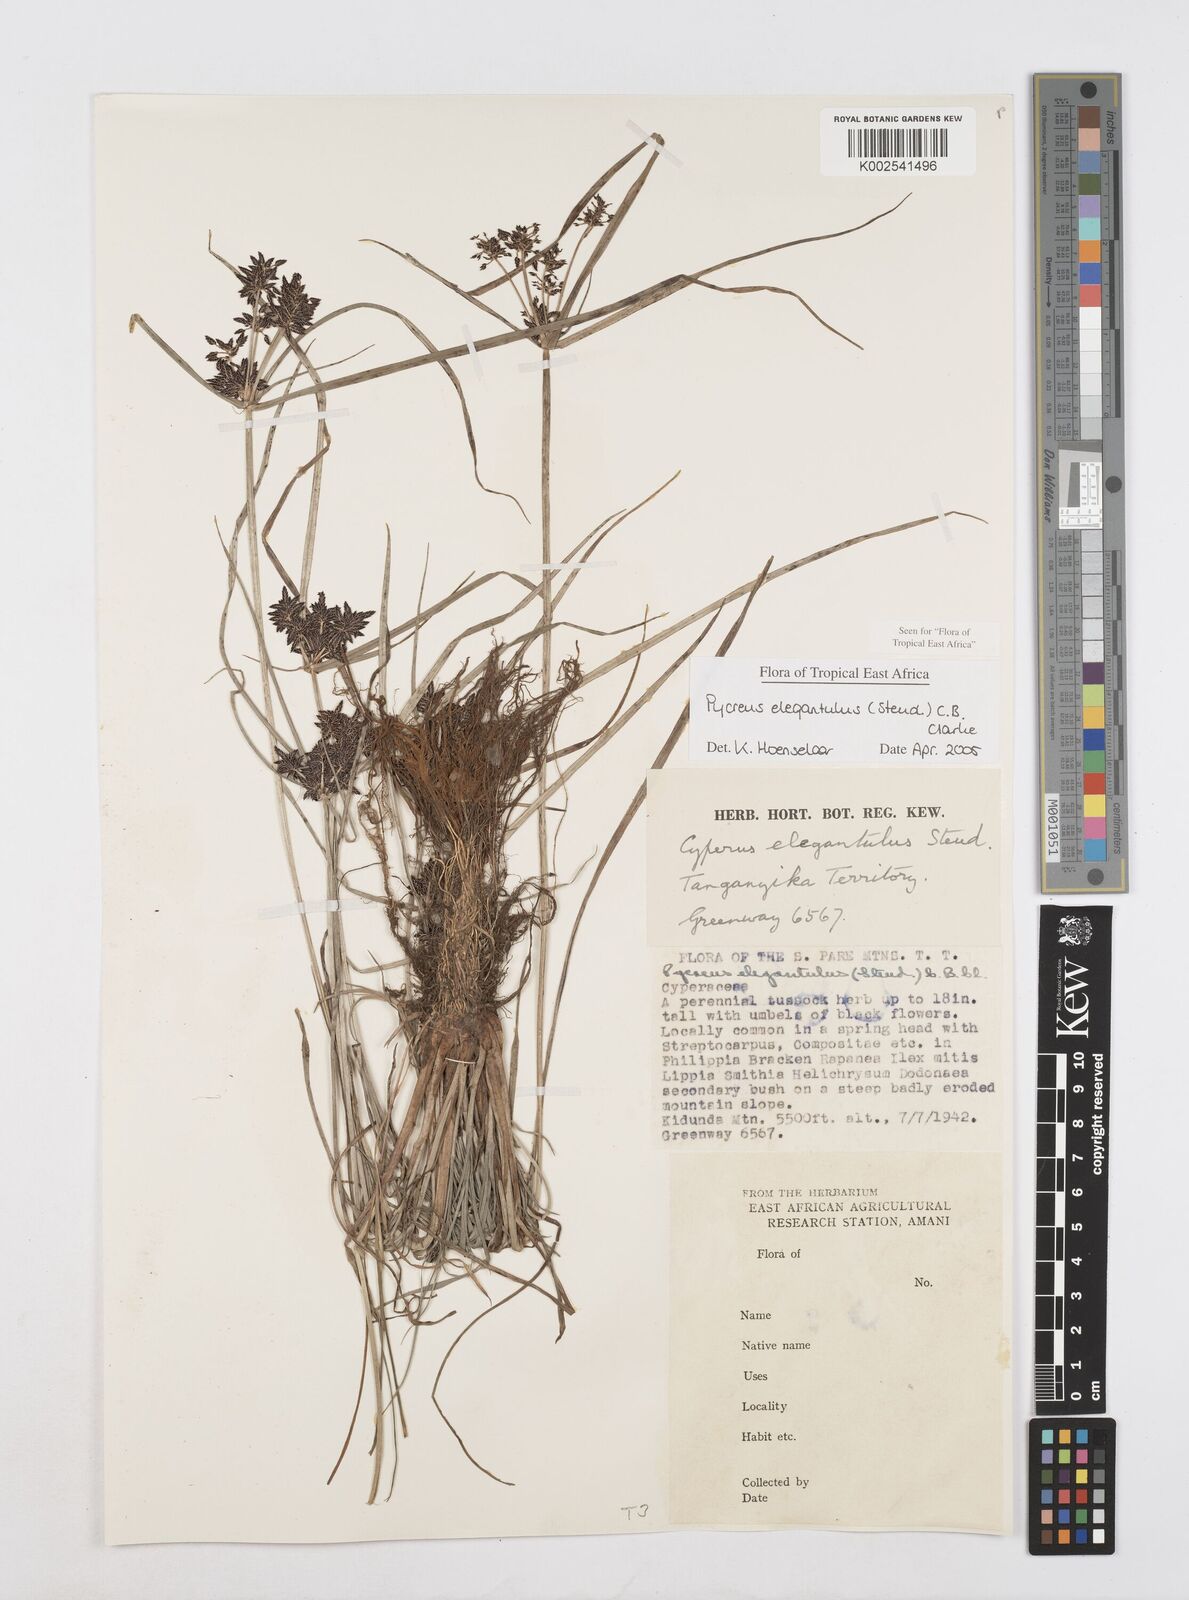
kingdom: Plantae
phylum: Tracheophyta
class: Liliopsida
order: Poales
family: Cyperaceae
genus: Cyperus
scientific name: Cyperus elegantulus
